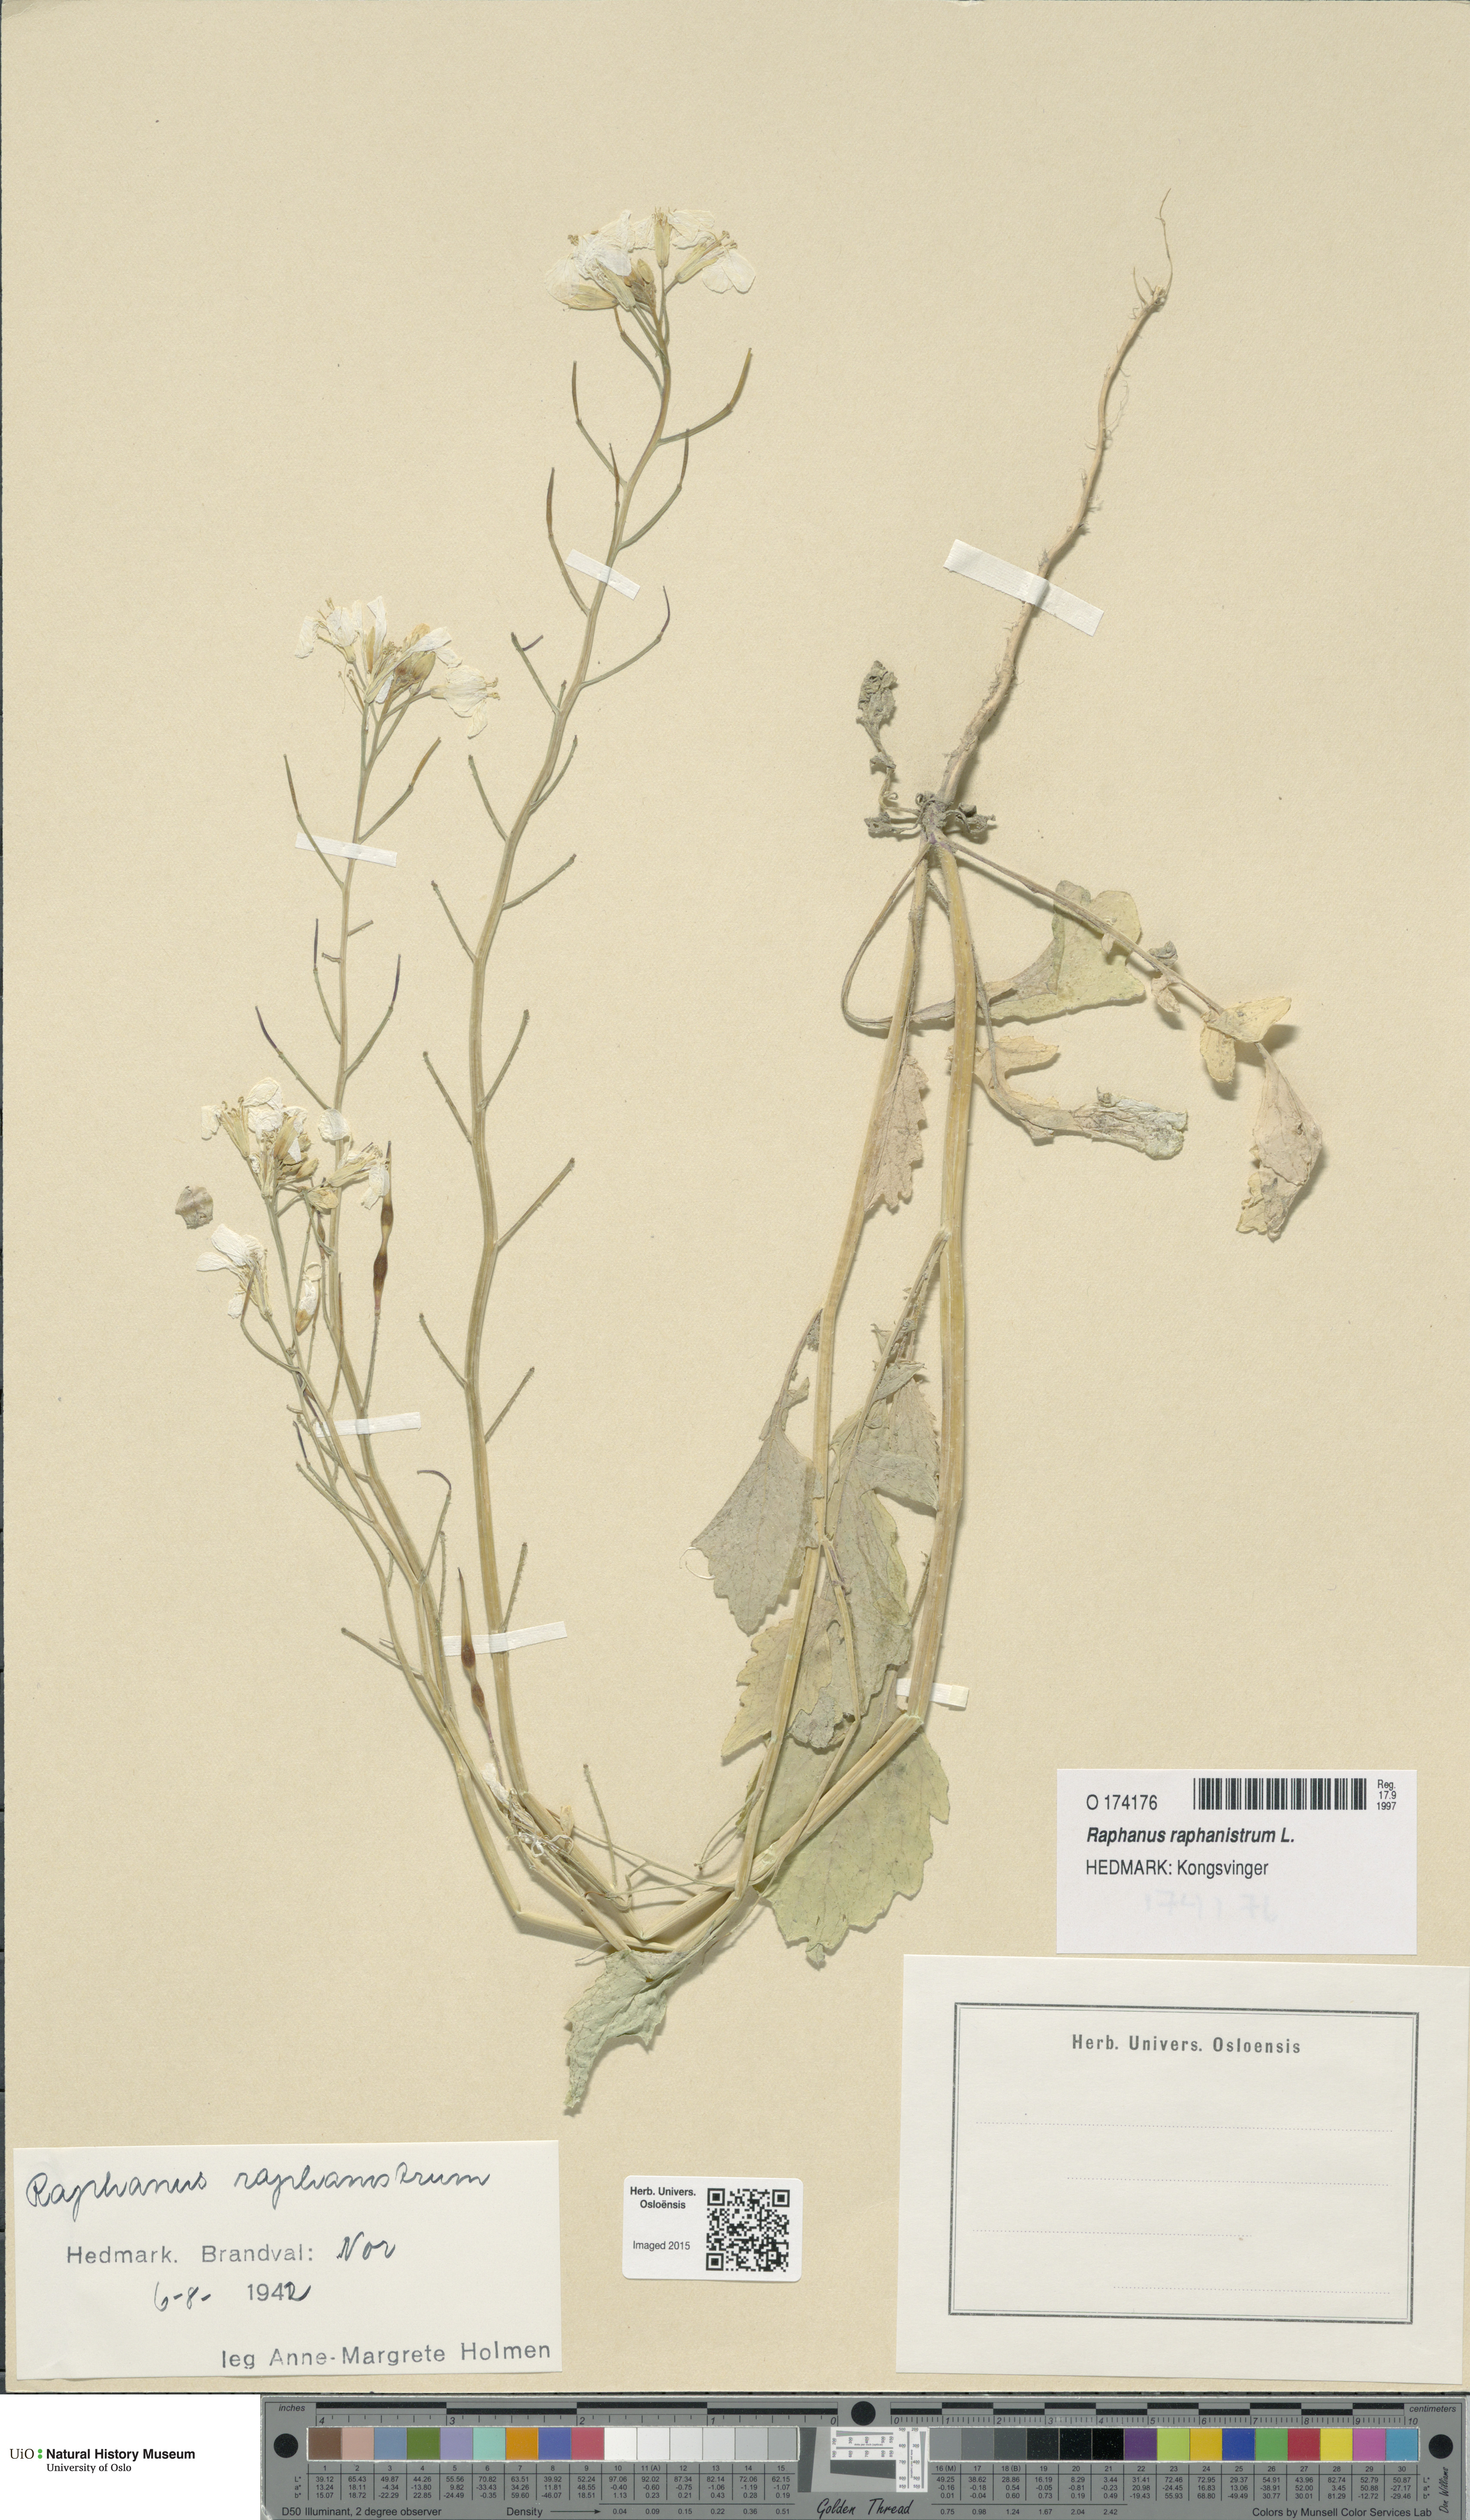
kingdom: Plantae
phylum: Tracheophyta
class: Magnoliopsida
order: Brassicales
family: Brassicaceae
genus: Raphanus
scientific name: Raphanus raphanistrum
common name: Wild radish
